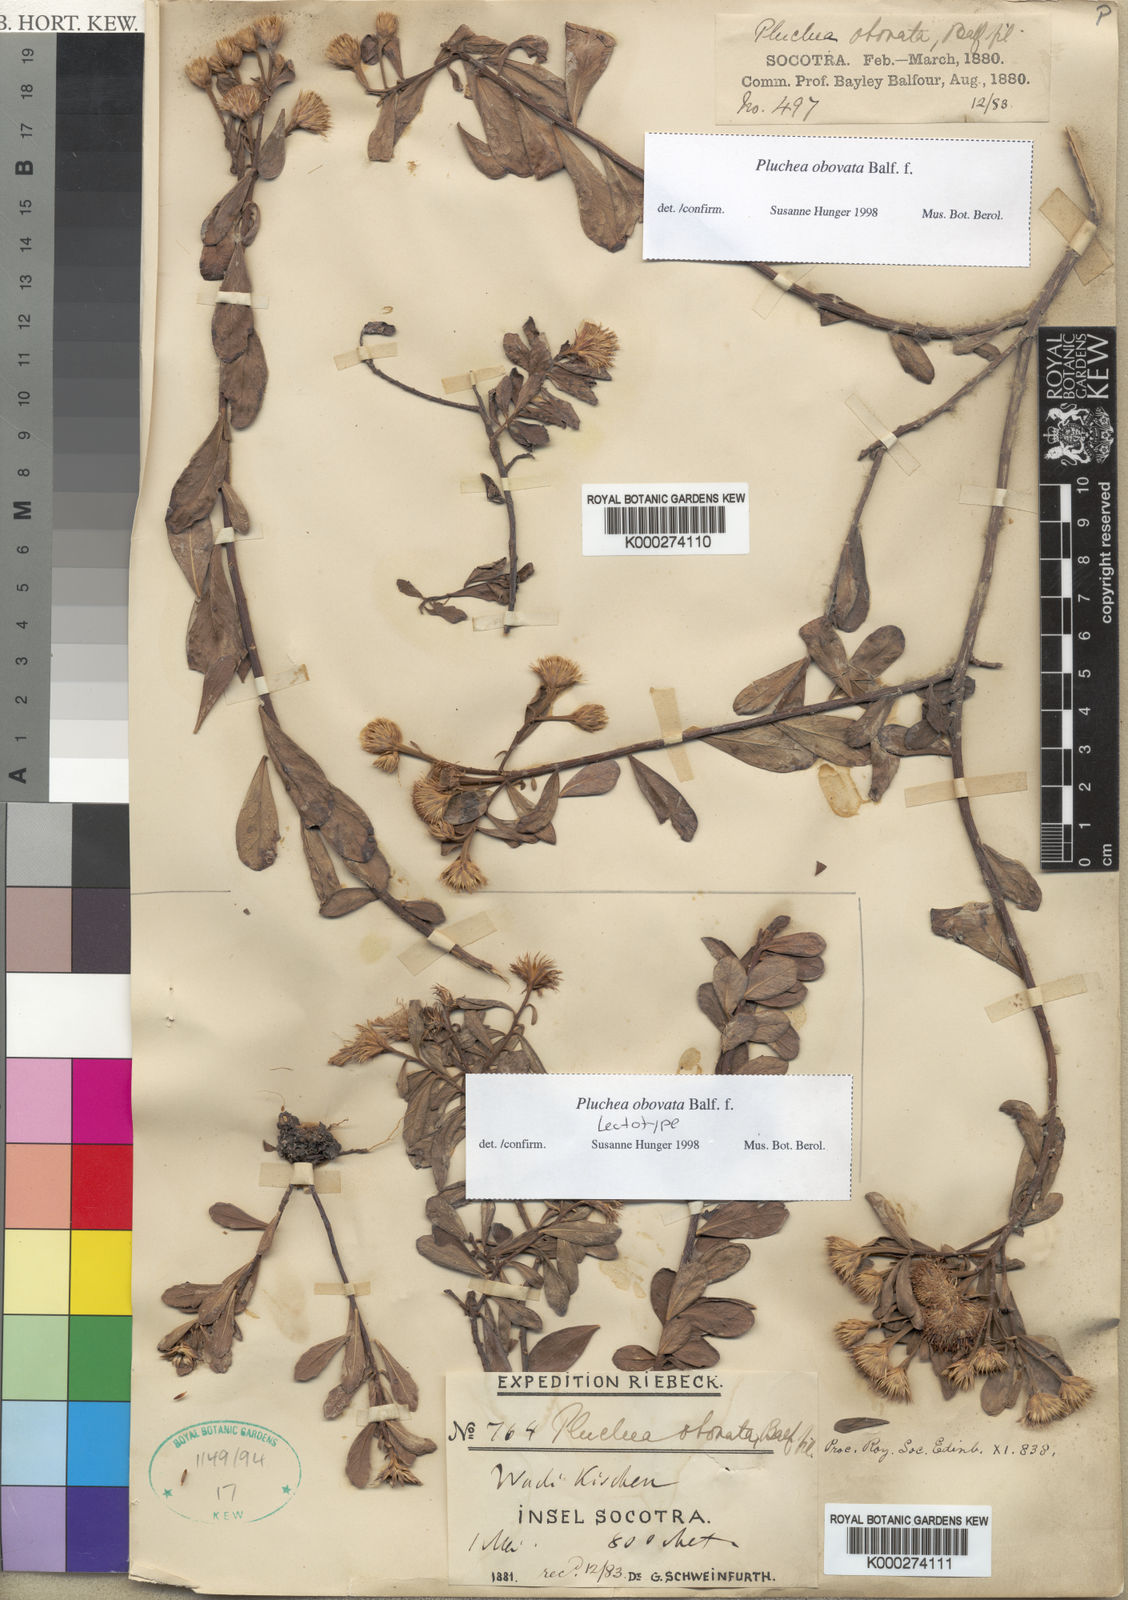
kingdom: Plantae
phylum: Tracheophyta
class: Magnoliopsida
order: Asterales
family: Asteraceae
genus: Pluchea
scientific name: Pluchea obovata
